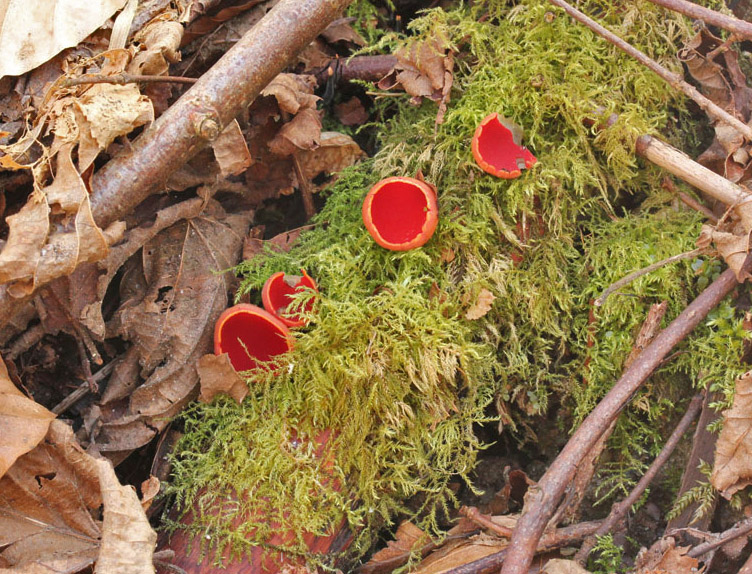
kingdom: Fungi
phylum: Ascomycota
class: Pezizomycetes
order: Pezizales
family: Sarcoscyphaceae
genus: Sarcoscypha
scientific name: Sarcoscypha austriaca
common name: krølhåret pragtbæger
